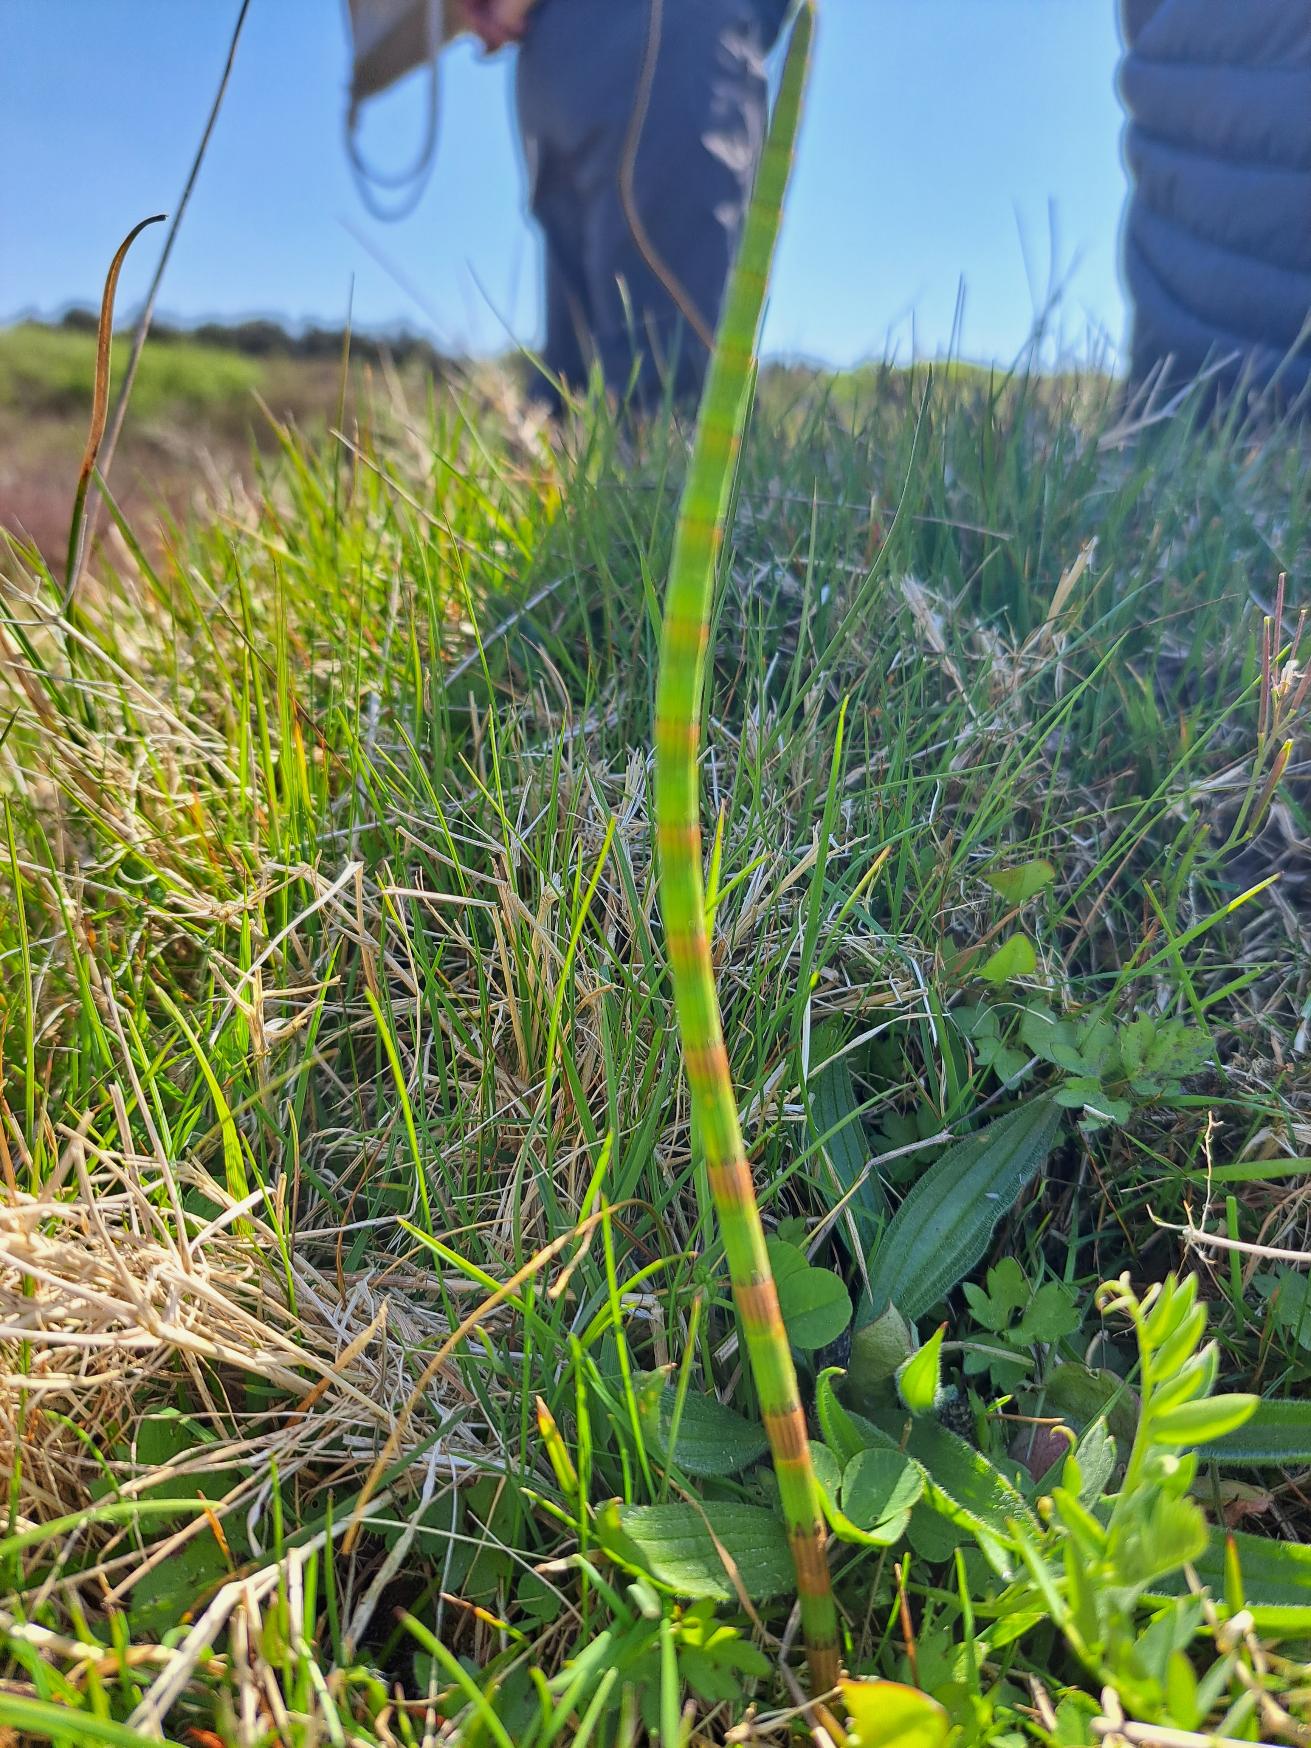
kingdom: Plantae
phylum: Tracheophyta
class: Polypodiopsida
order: Equisetales
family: Equisetaceae
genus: Equisetum
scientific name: Equisetum fluviatile
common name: Dynd-padderok
